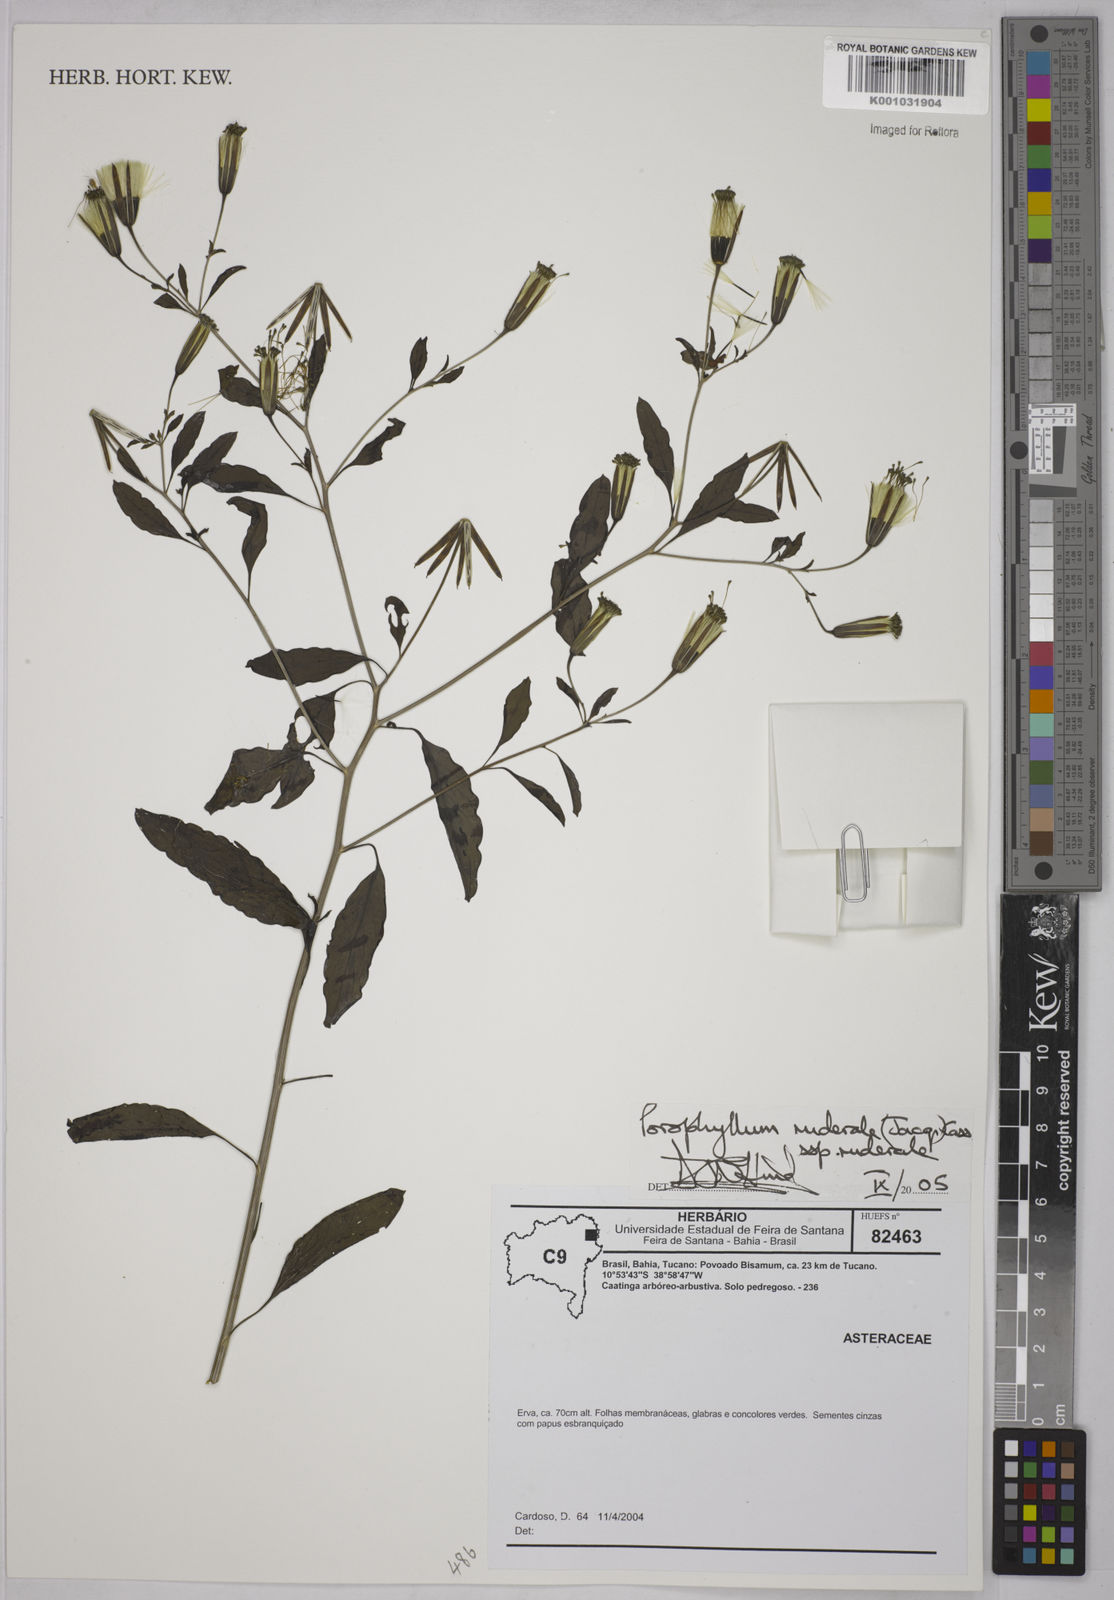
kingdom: Plantae
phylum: Tracheophyta
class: Magnoliopsida
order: Asterales
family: Asteraceae
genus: Porophyllum
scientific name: Porophyllum ruderale
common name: Yerba porosa
